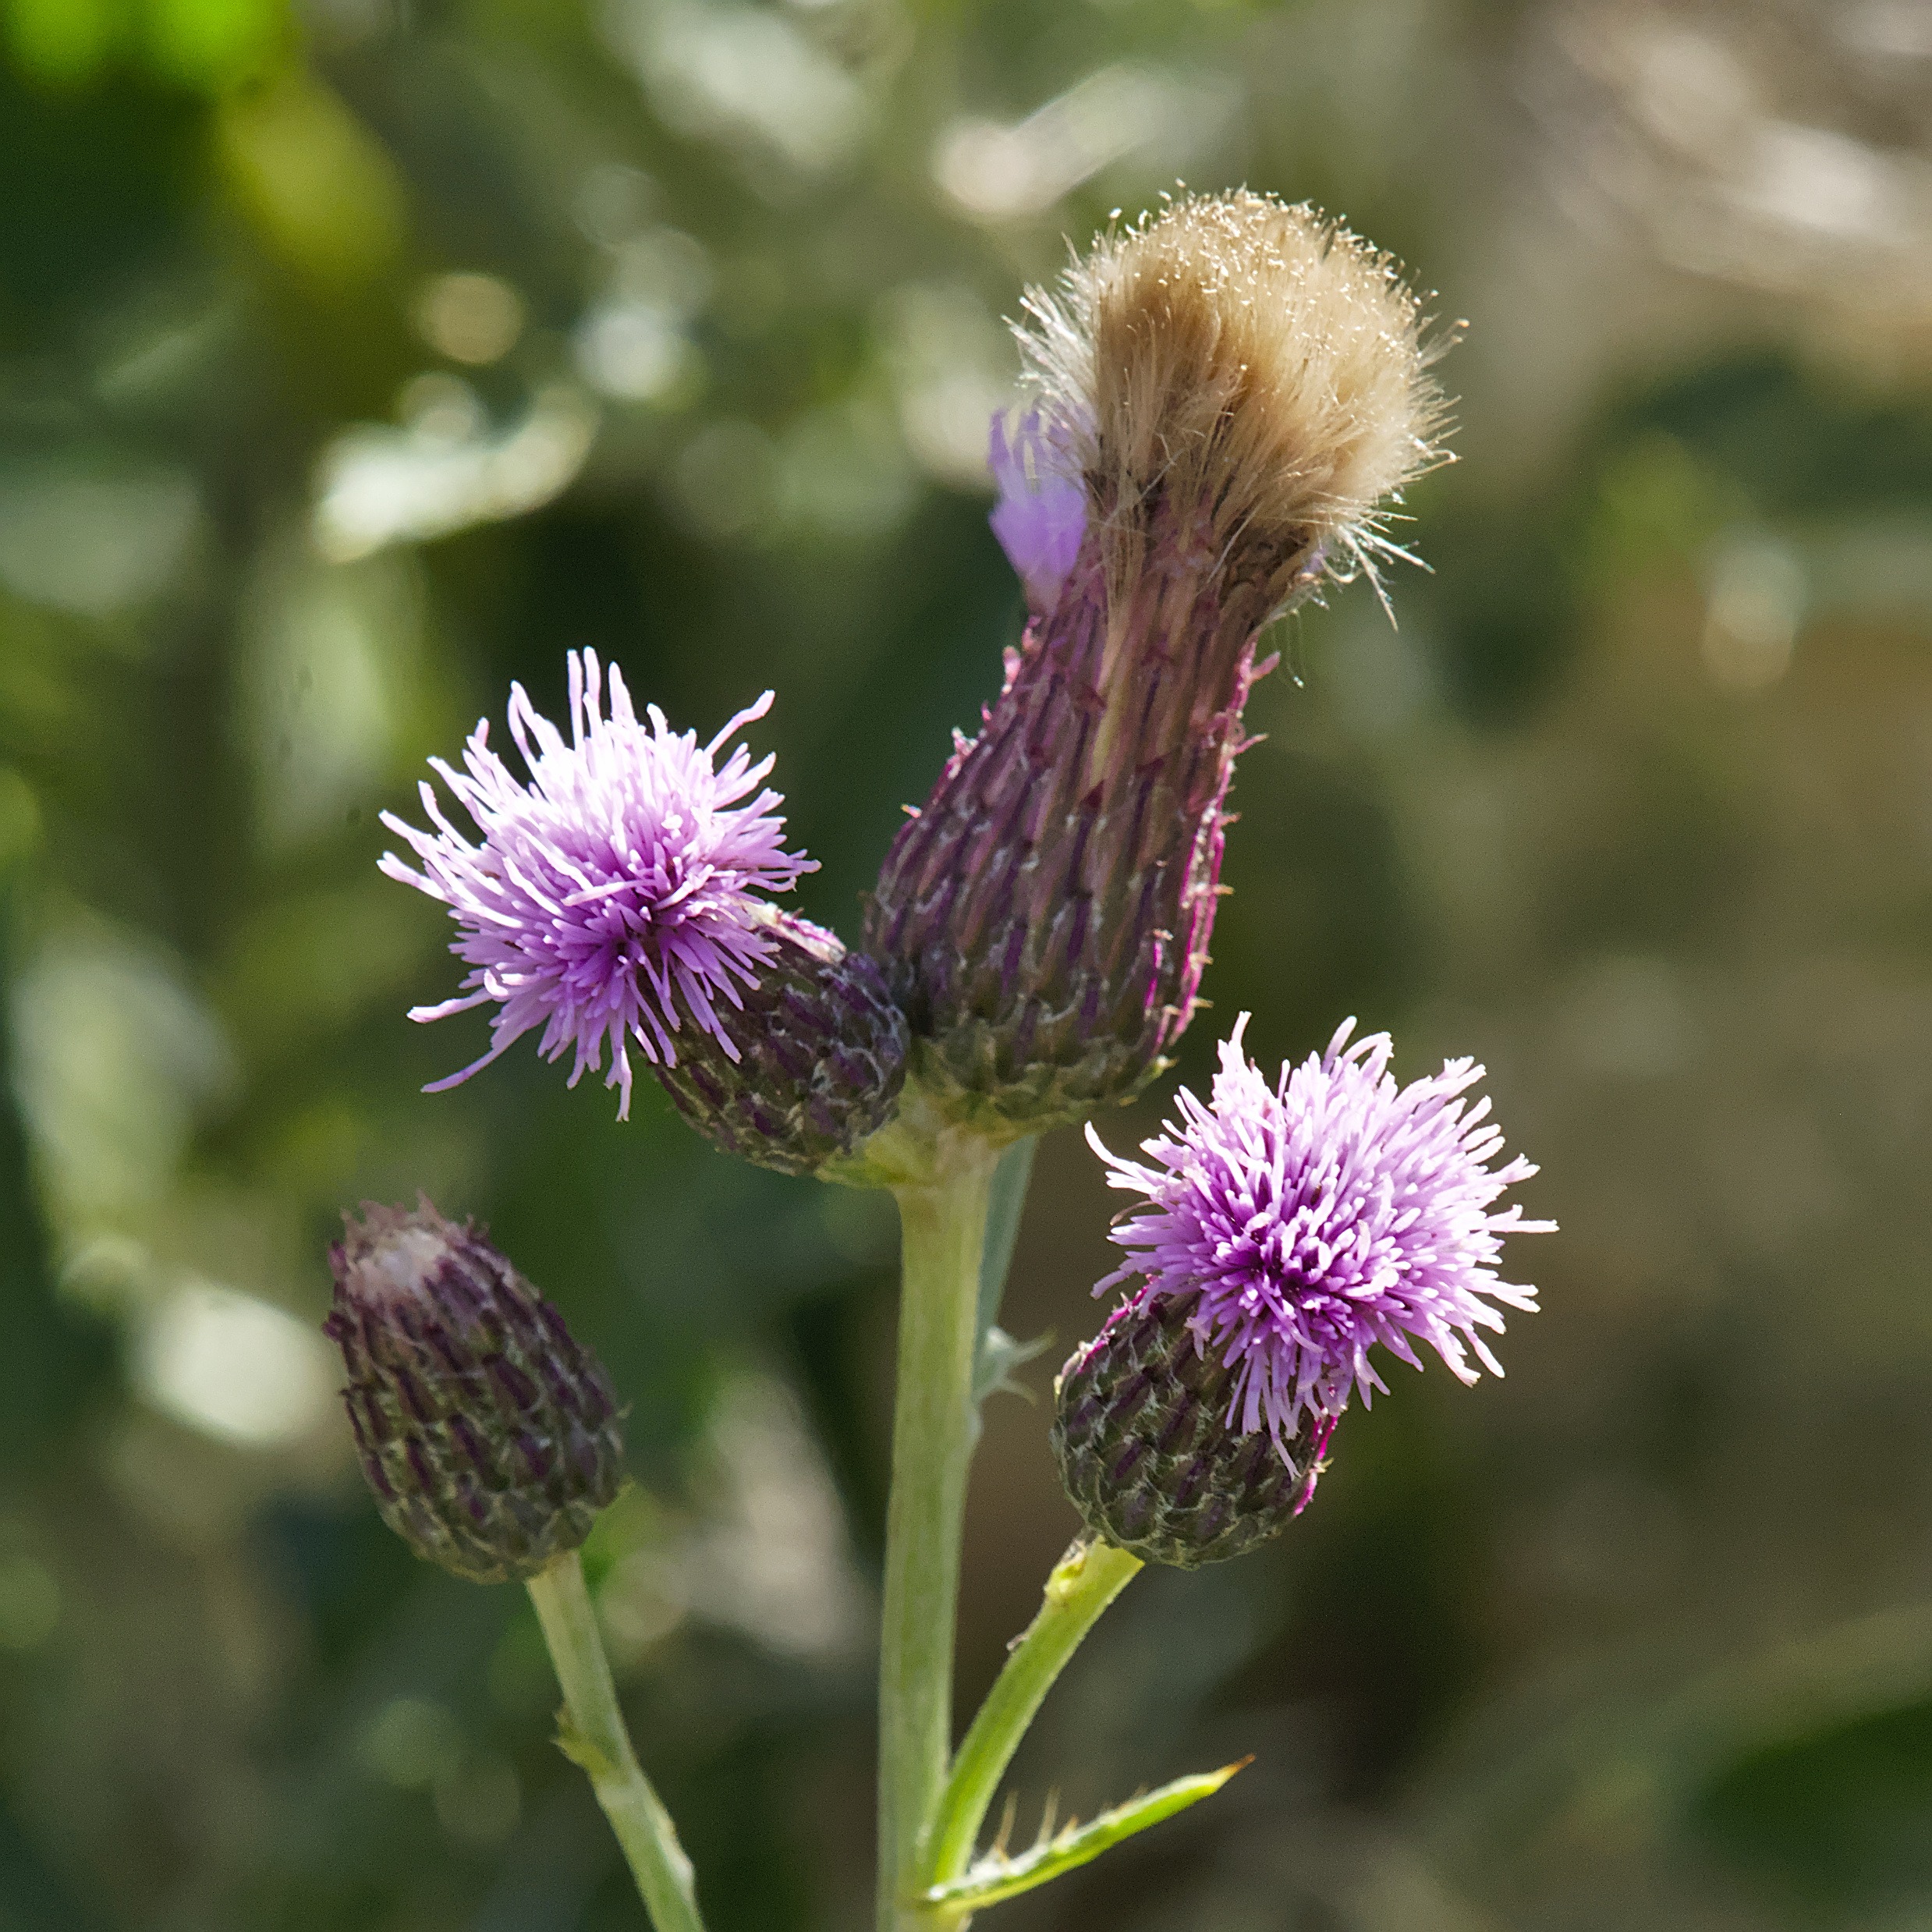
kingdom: Plantae
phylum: Tracheophyta
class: Magnoliopsida
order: Asterales
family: Asteraceae
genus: Cirsium
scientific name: Cirsium arvense
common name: Ager-tidsel
